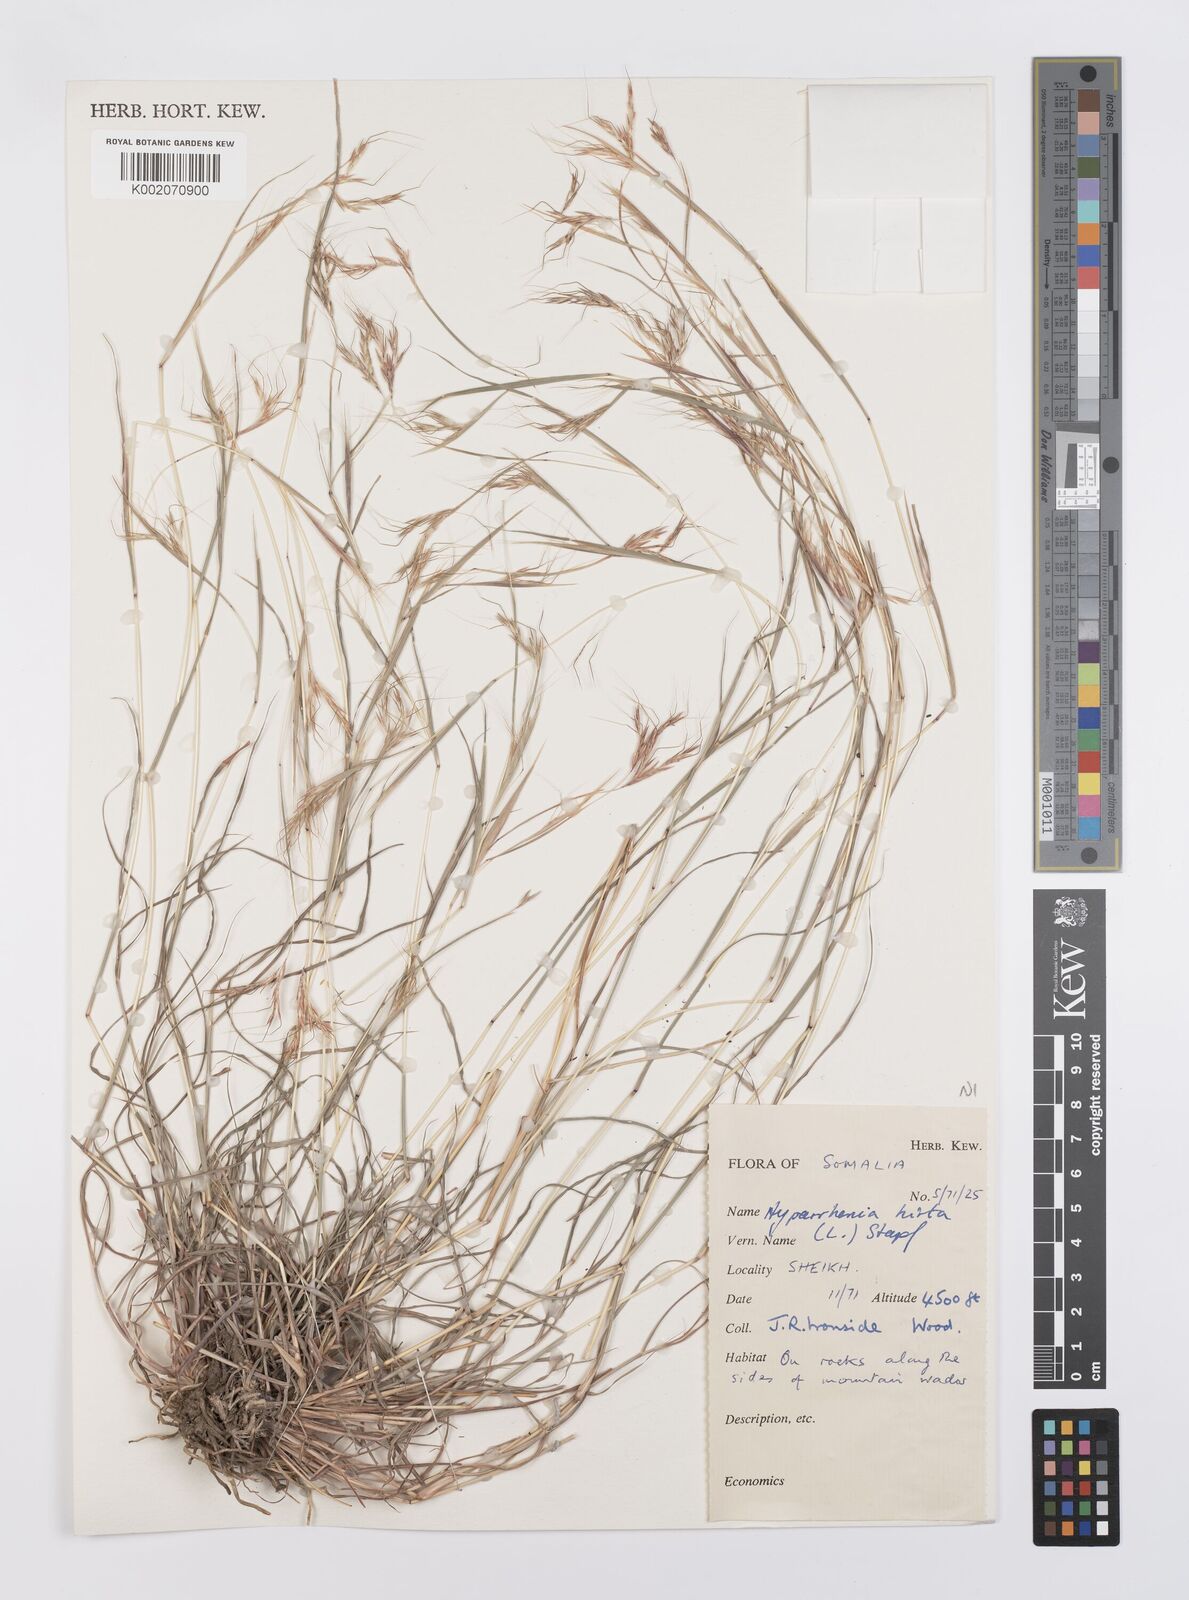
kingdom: Plantae
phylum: Tracheophyta
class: Liliopsida
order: Poales
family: Poaceae
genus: Hyparrhenia
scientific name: Hyparrhenia hirta
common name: Thatching grass
